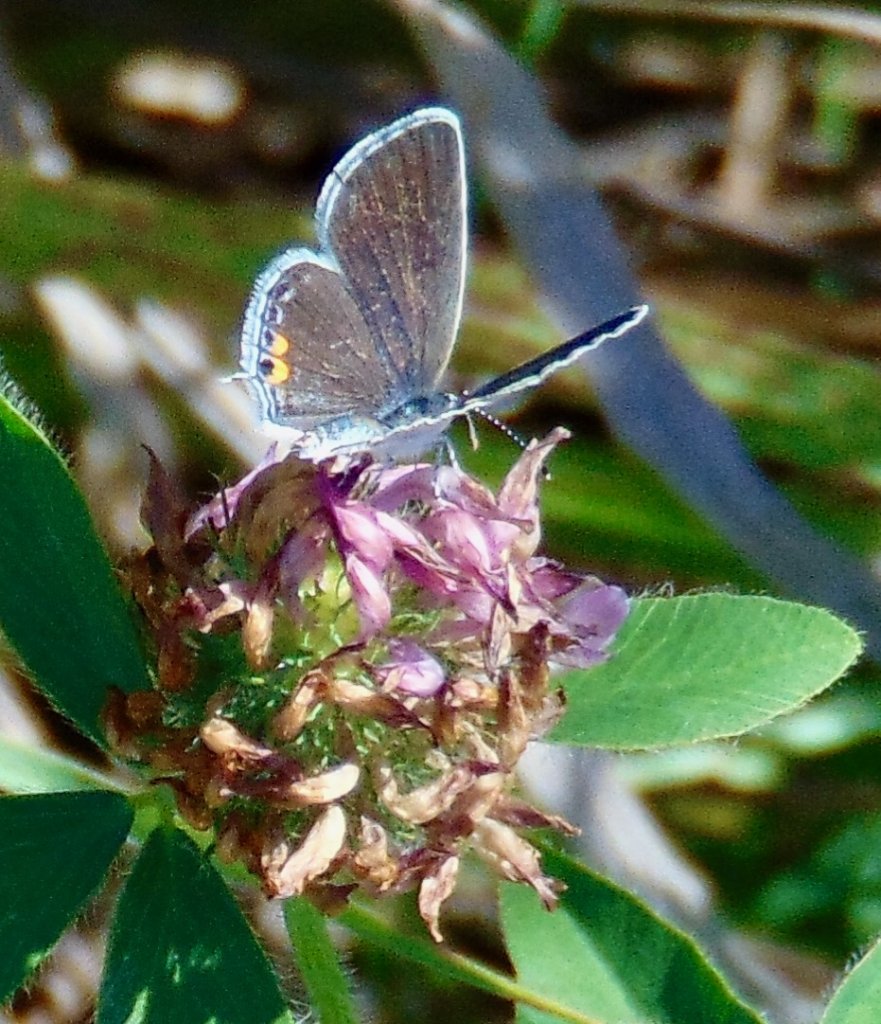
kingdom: Animalia
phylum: Arthropoda
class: Insecta
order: Lepidoptera
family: Lycaenidae
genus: Elkalyce
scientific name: Elkalyce comyntas
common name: Eastern Tailed-Blue
